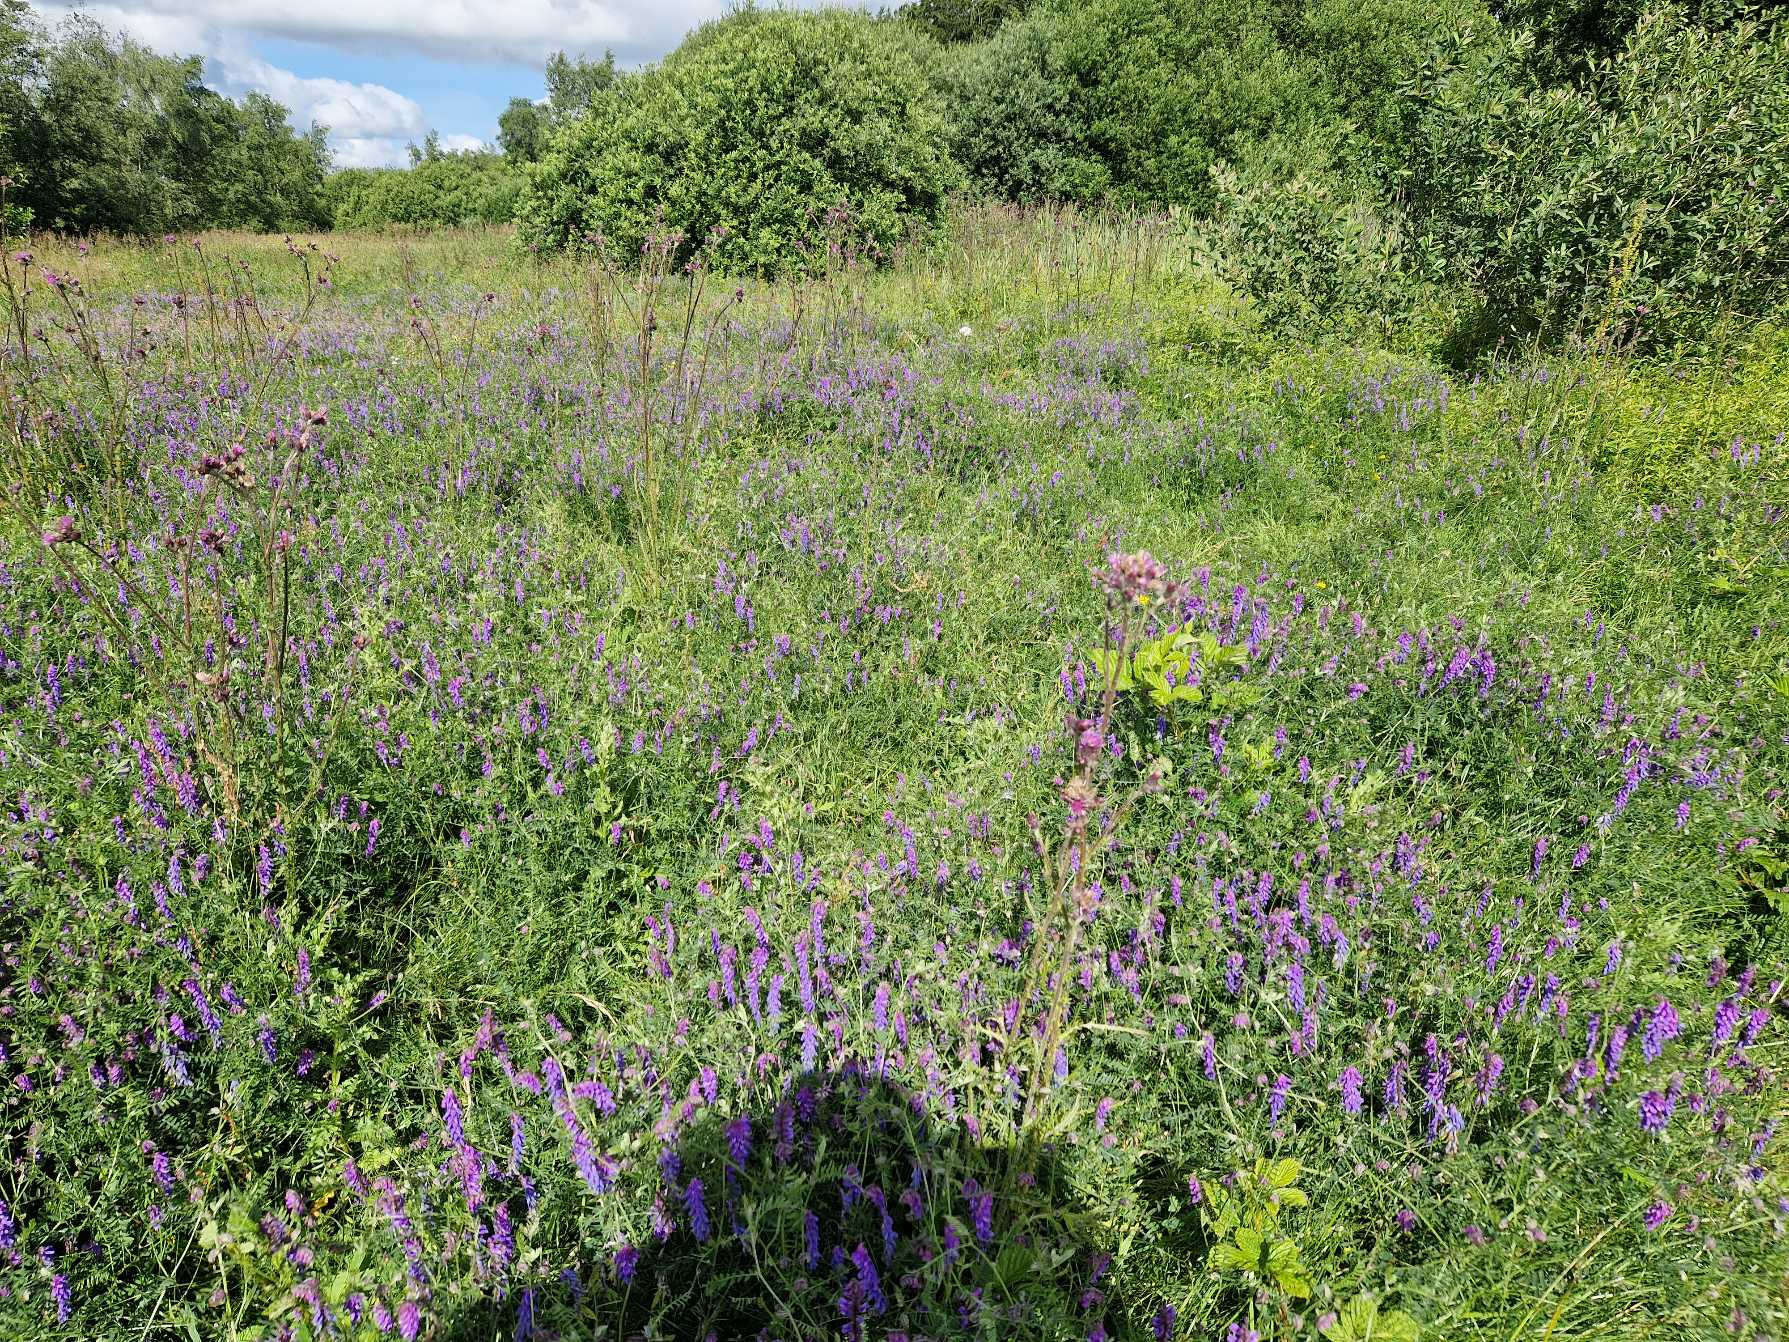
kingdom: Plantae
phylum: Tracheophyta
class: Magnoliopsida
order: Fabales
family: Fabaceae
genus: Vicia
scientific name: Vicia cracca
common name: Muse-vikke
